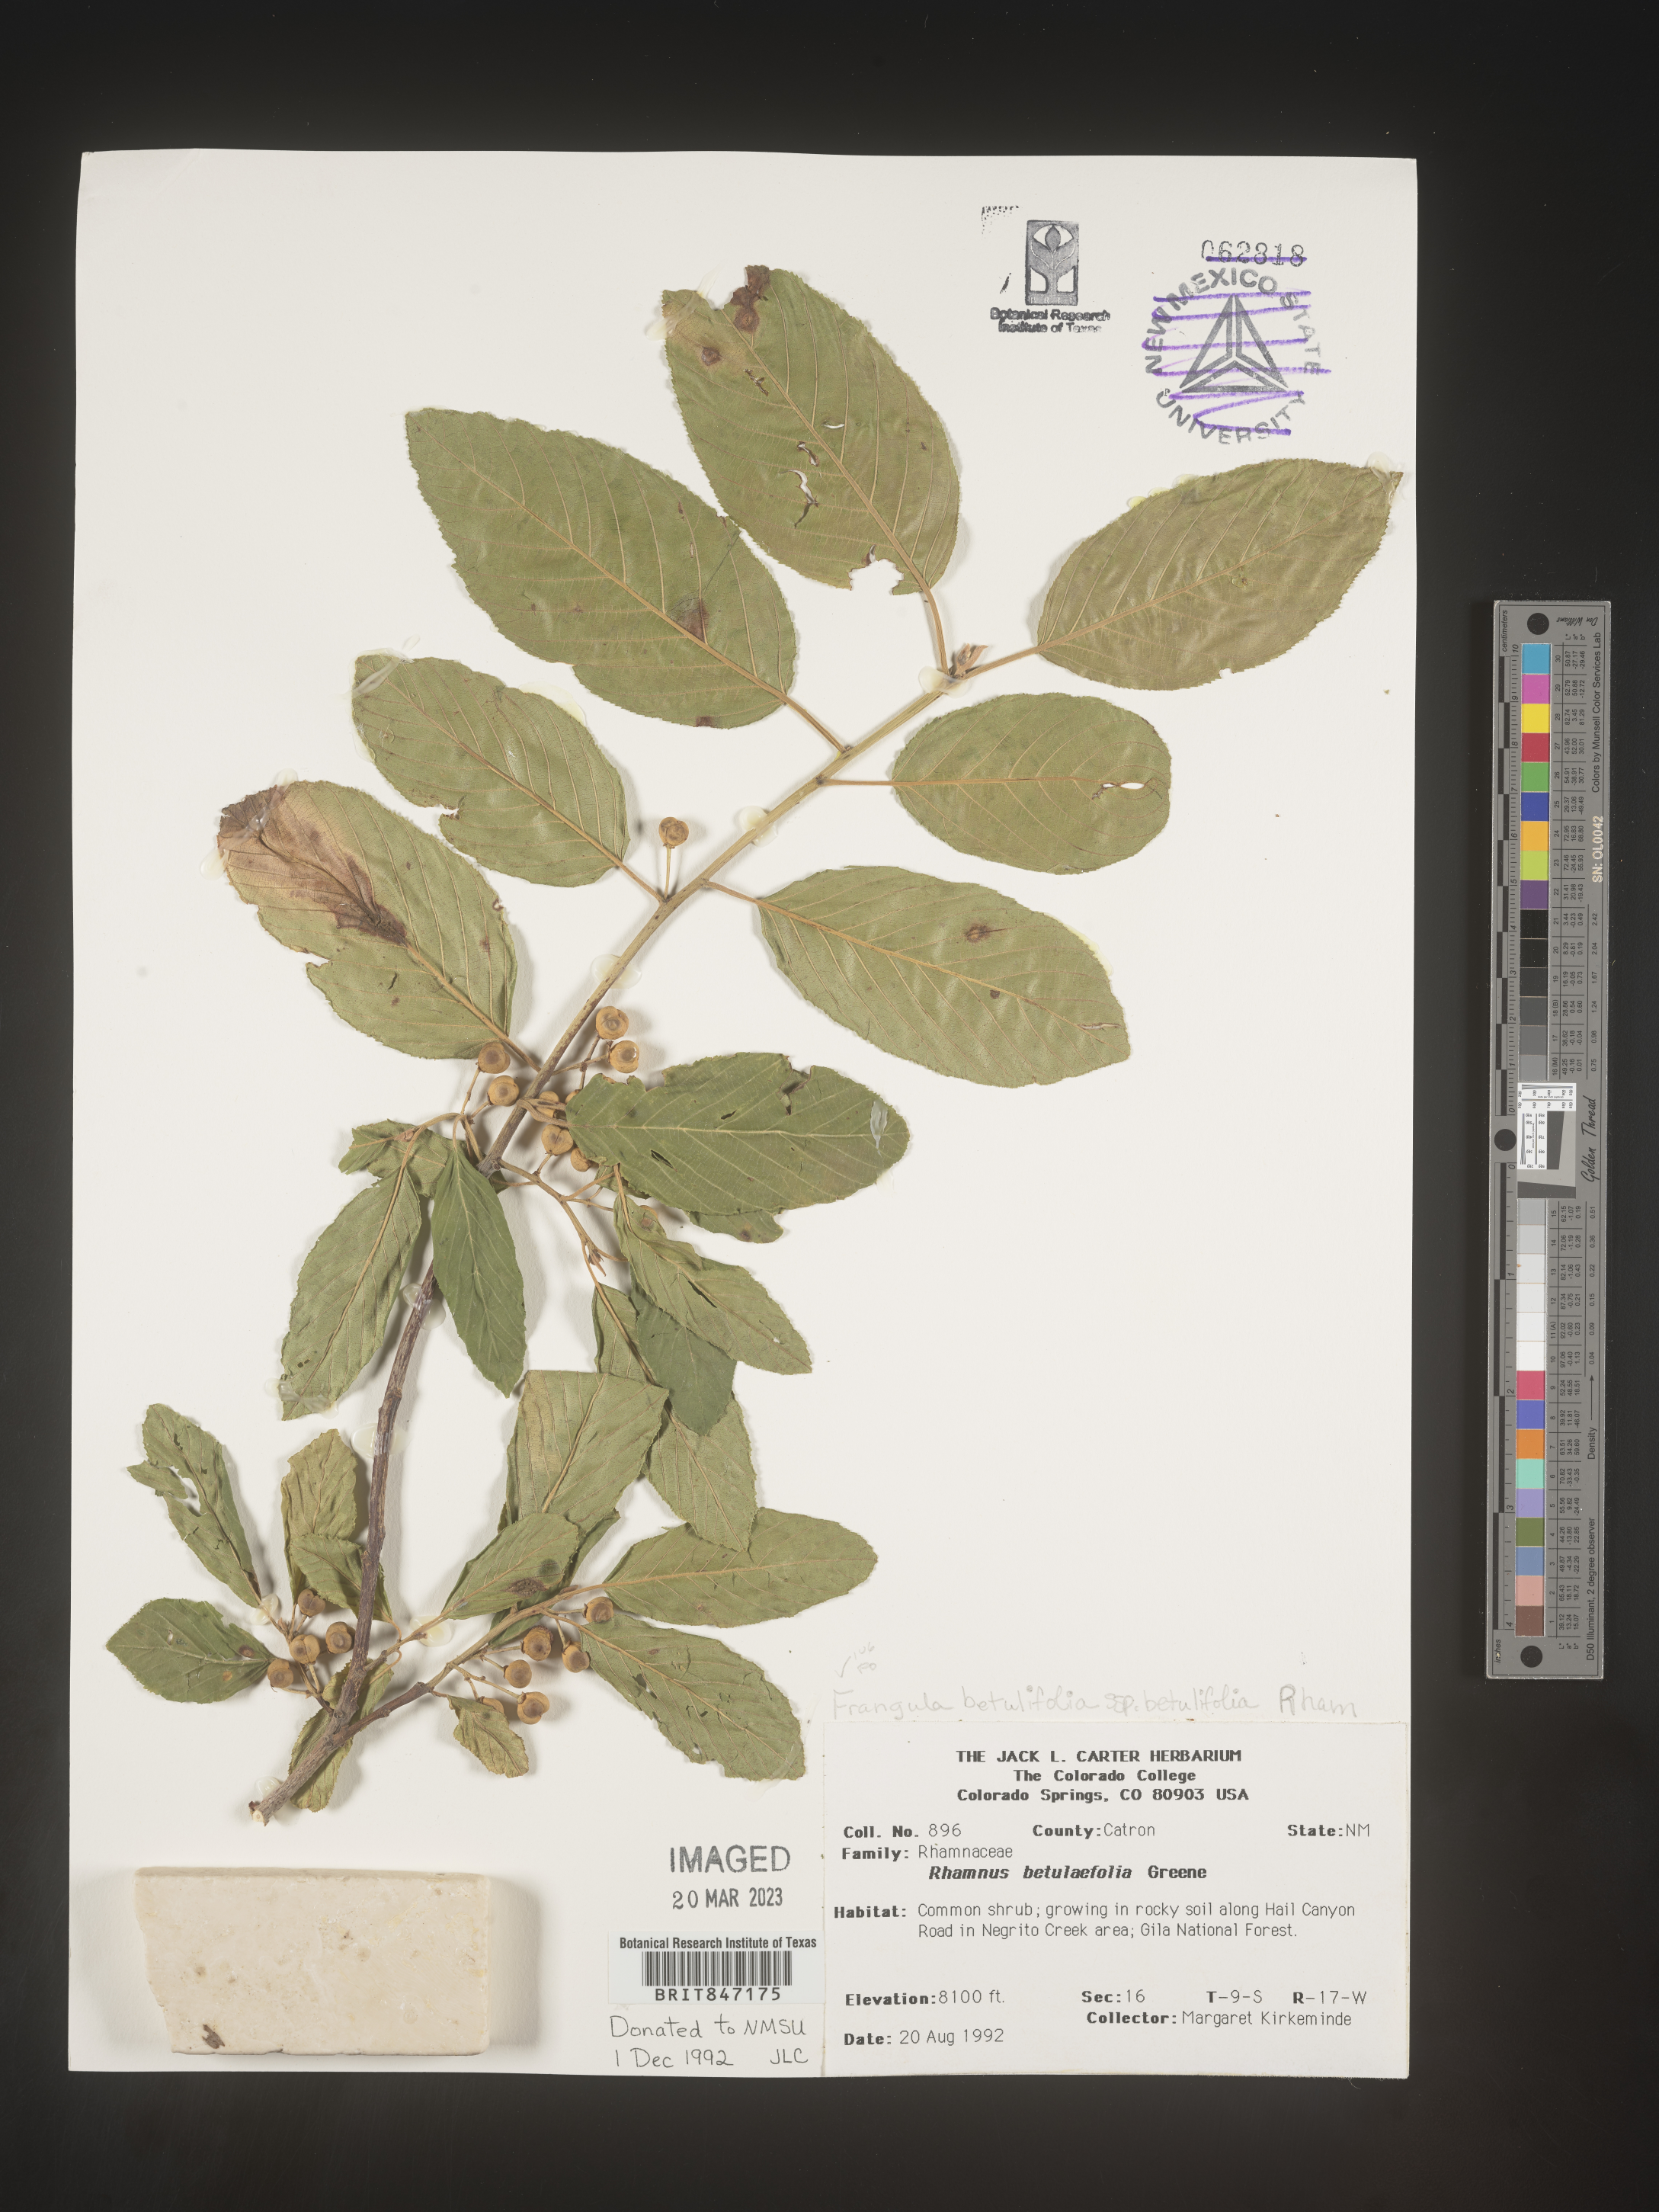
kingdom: Plantae
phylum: Tracheophyta
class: Magnoliopsida
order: Rosales
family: Rhamnaceae
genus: Frangula
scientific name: Frangula
